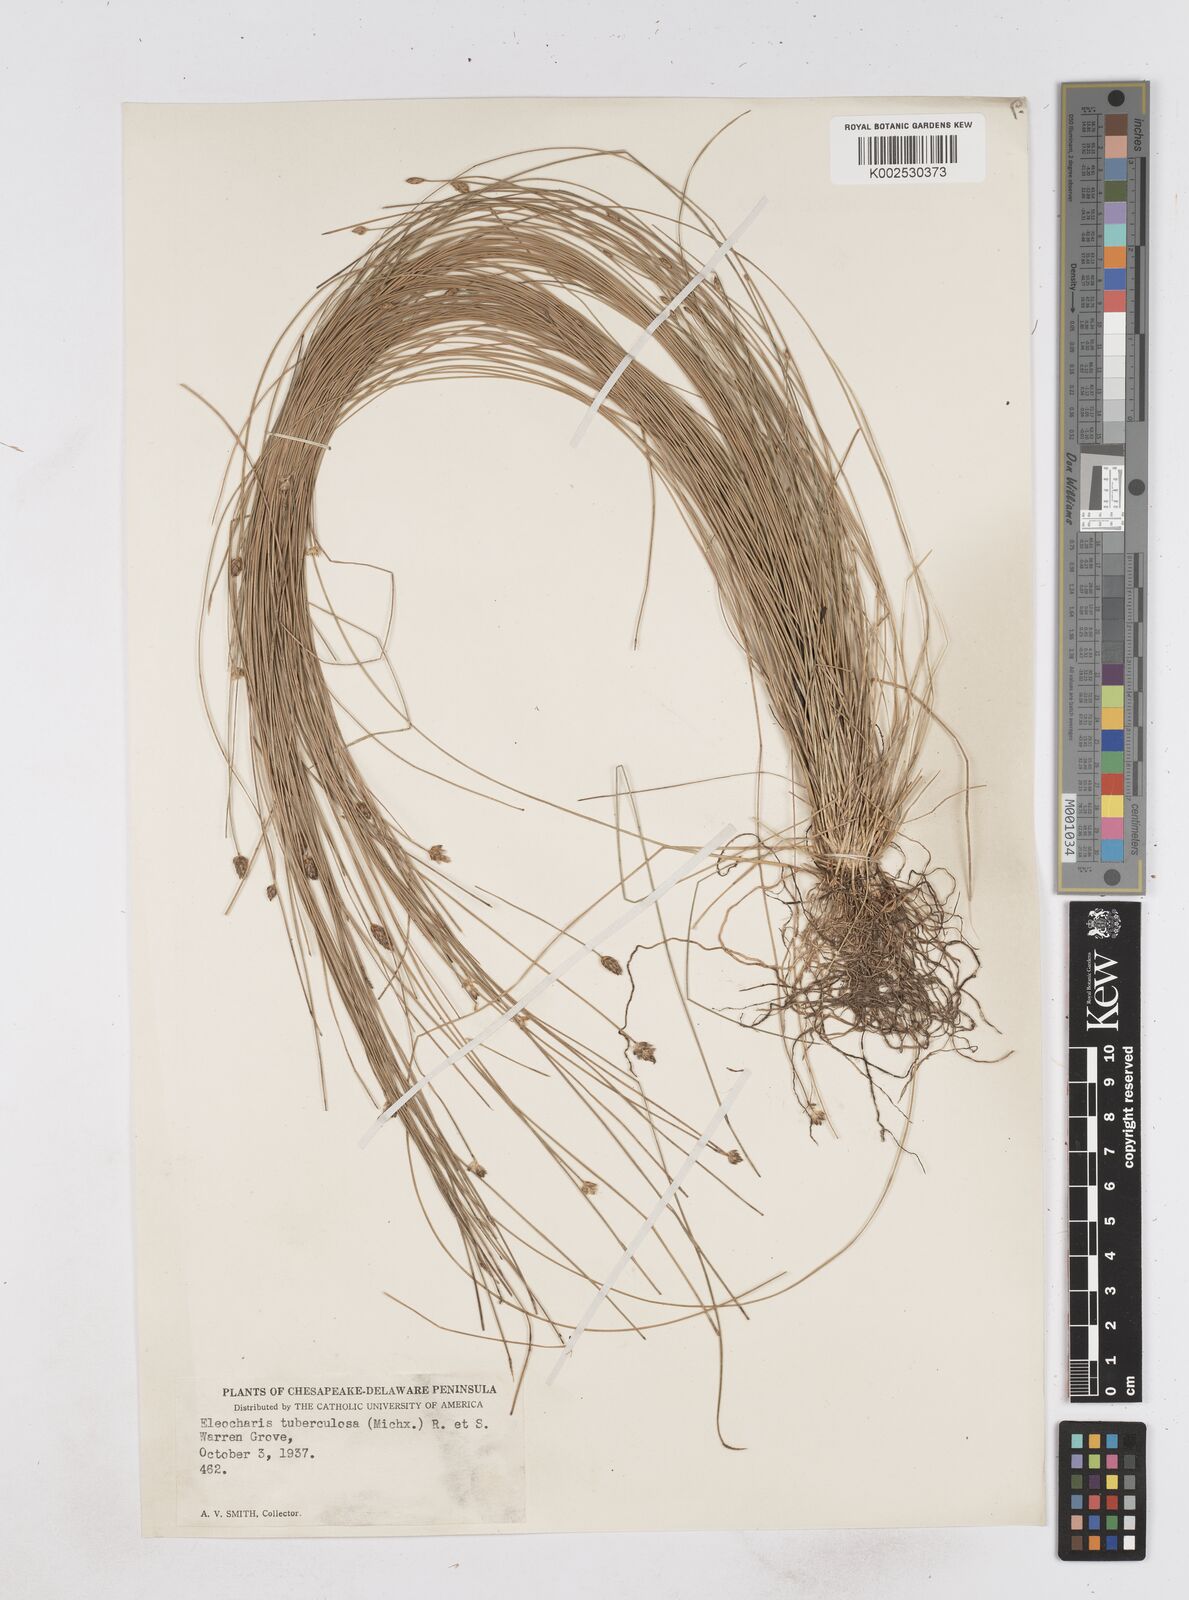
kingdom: Plantae
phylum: Tracheophyta
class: Liliopsida
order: Poales
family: Cyperaceae
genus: Eleocharis
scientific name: Eleocharis tuberculosa
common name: Cone-cup spikerush
